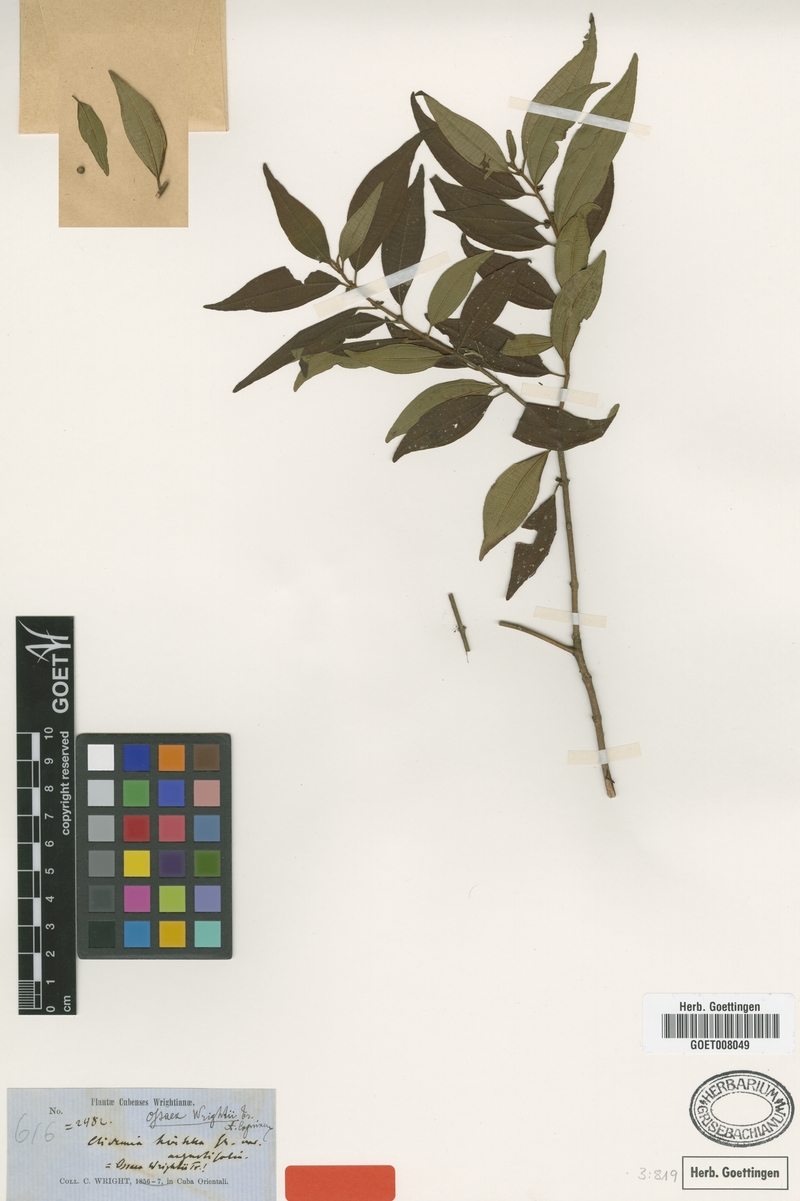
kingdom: Plantae
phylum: Tracheophyta
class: Magnoliopsida
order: Myrtales
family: Melastomataceae
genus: Miconia
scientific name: Miconia
